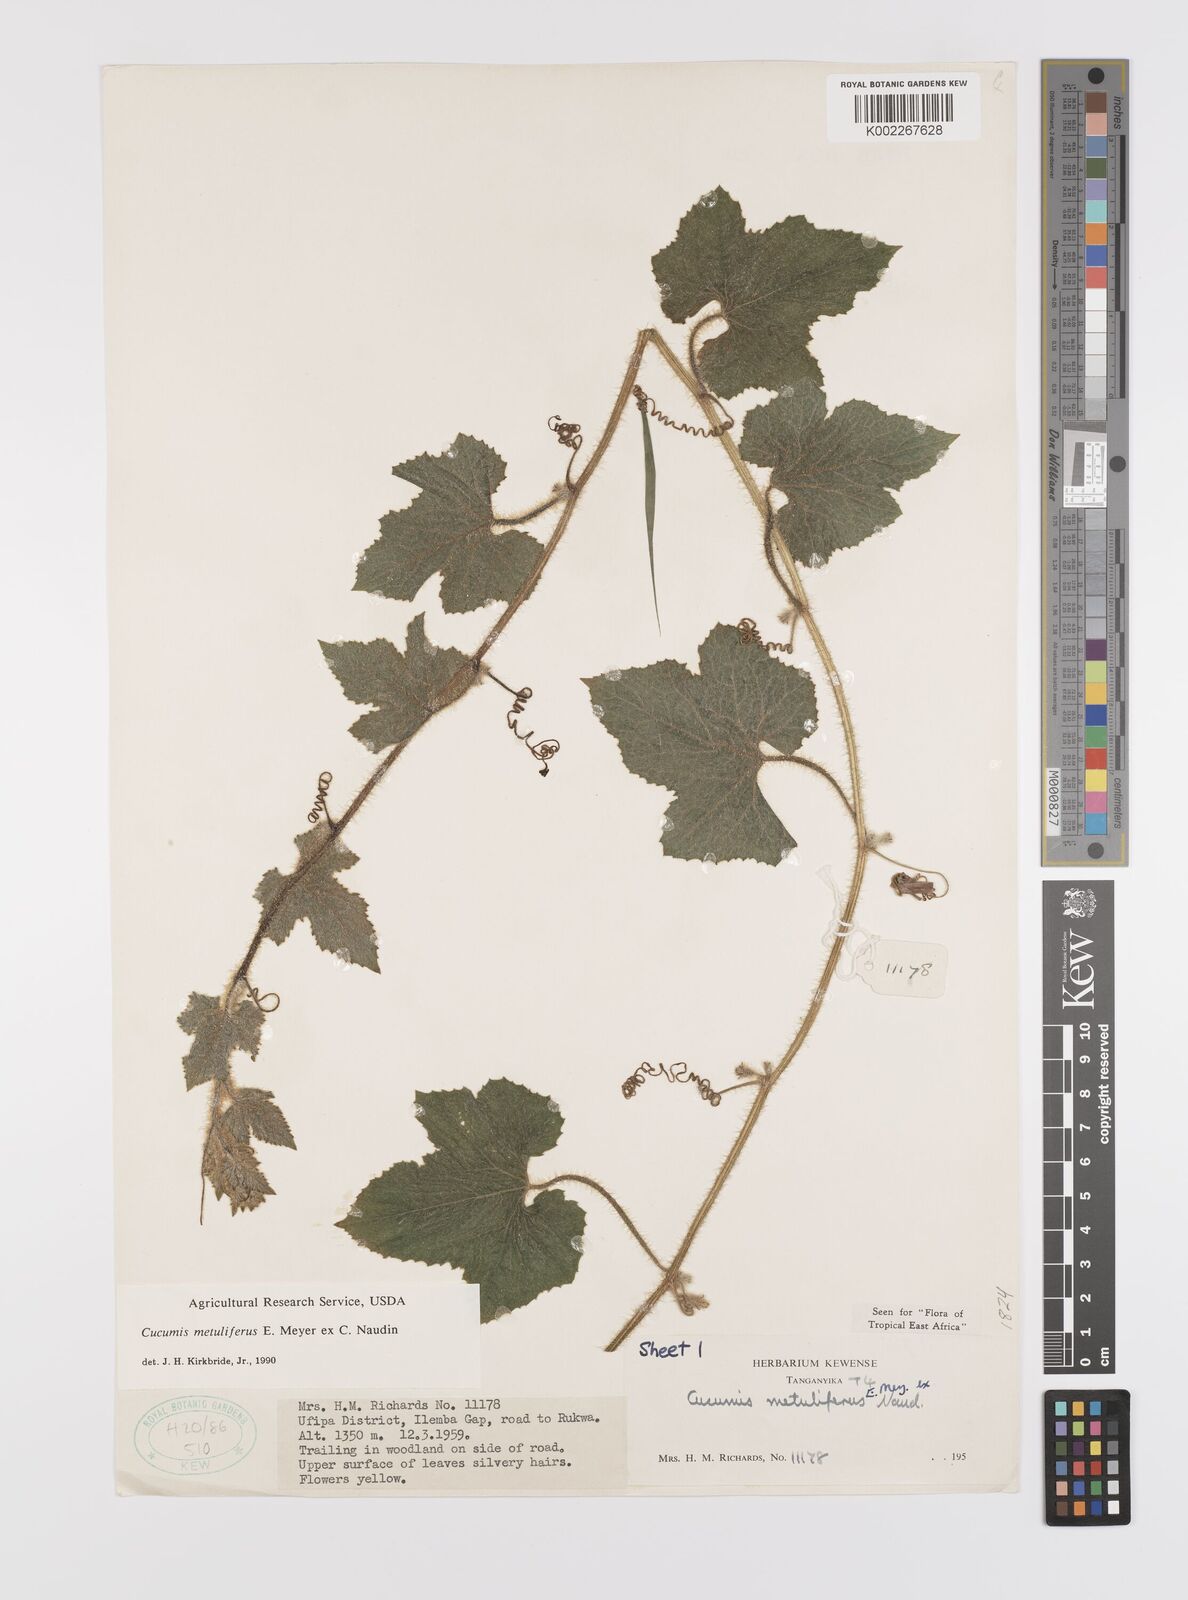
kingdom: Plantae
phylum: Tracheophyta
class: Magnoliopsida
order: Cucurbitales
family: Cucurbitaceae
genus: Cucumis
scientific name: Cucumis metuliferus
